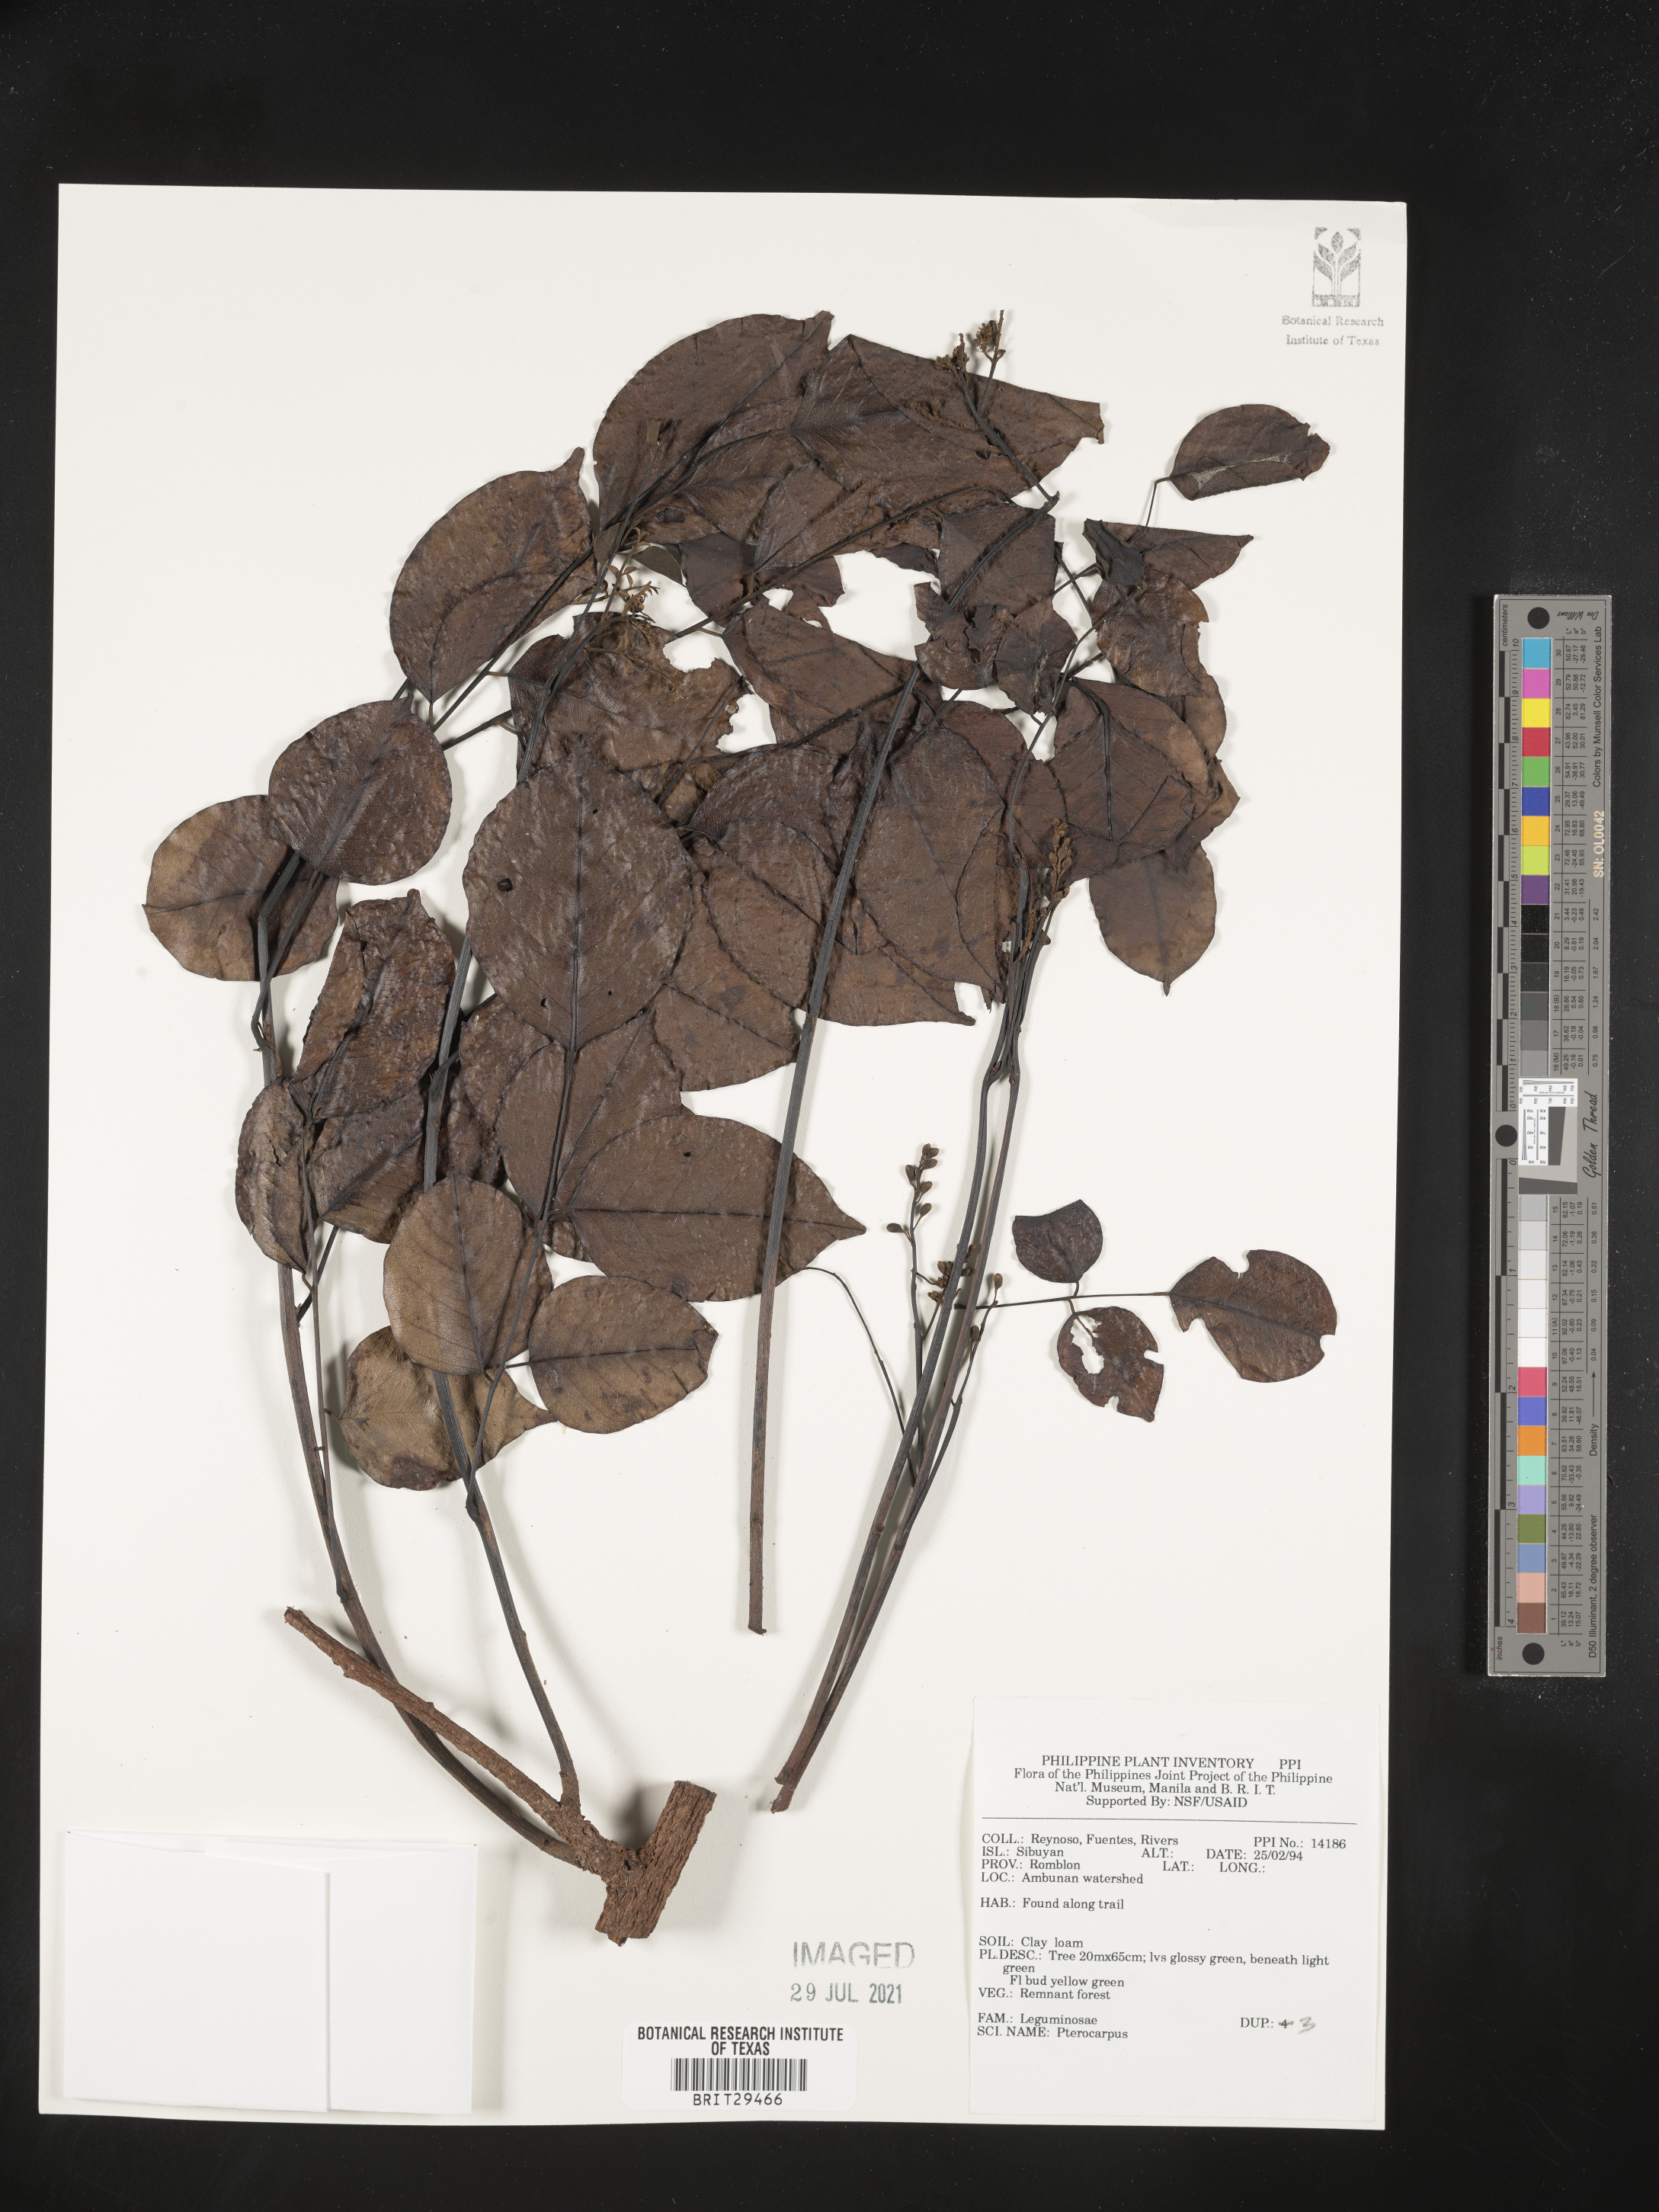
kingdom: Plantae
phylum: Tracheophyta
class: Magnoliopsida
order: Fabales
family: Fabaceae
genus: Pterocarpus
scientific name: Pterocarpus
